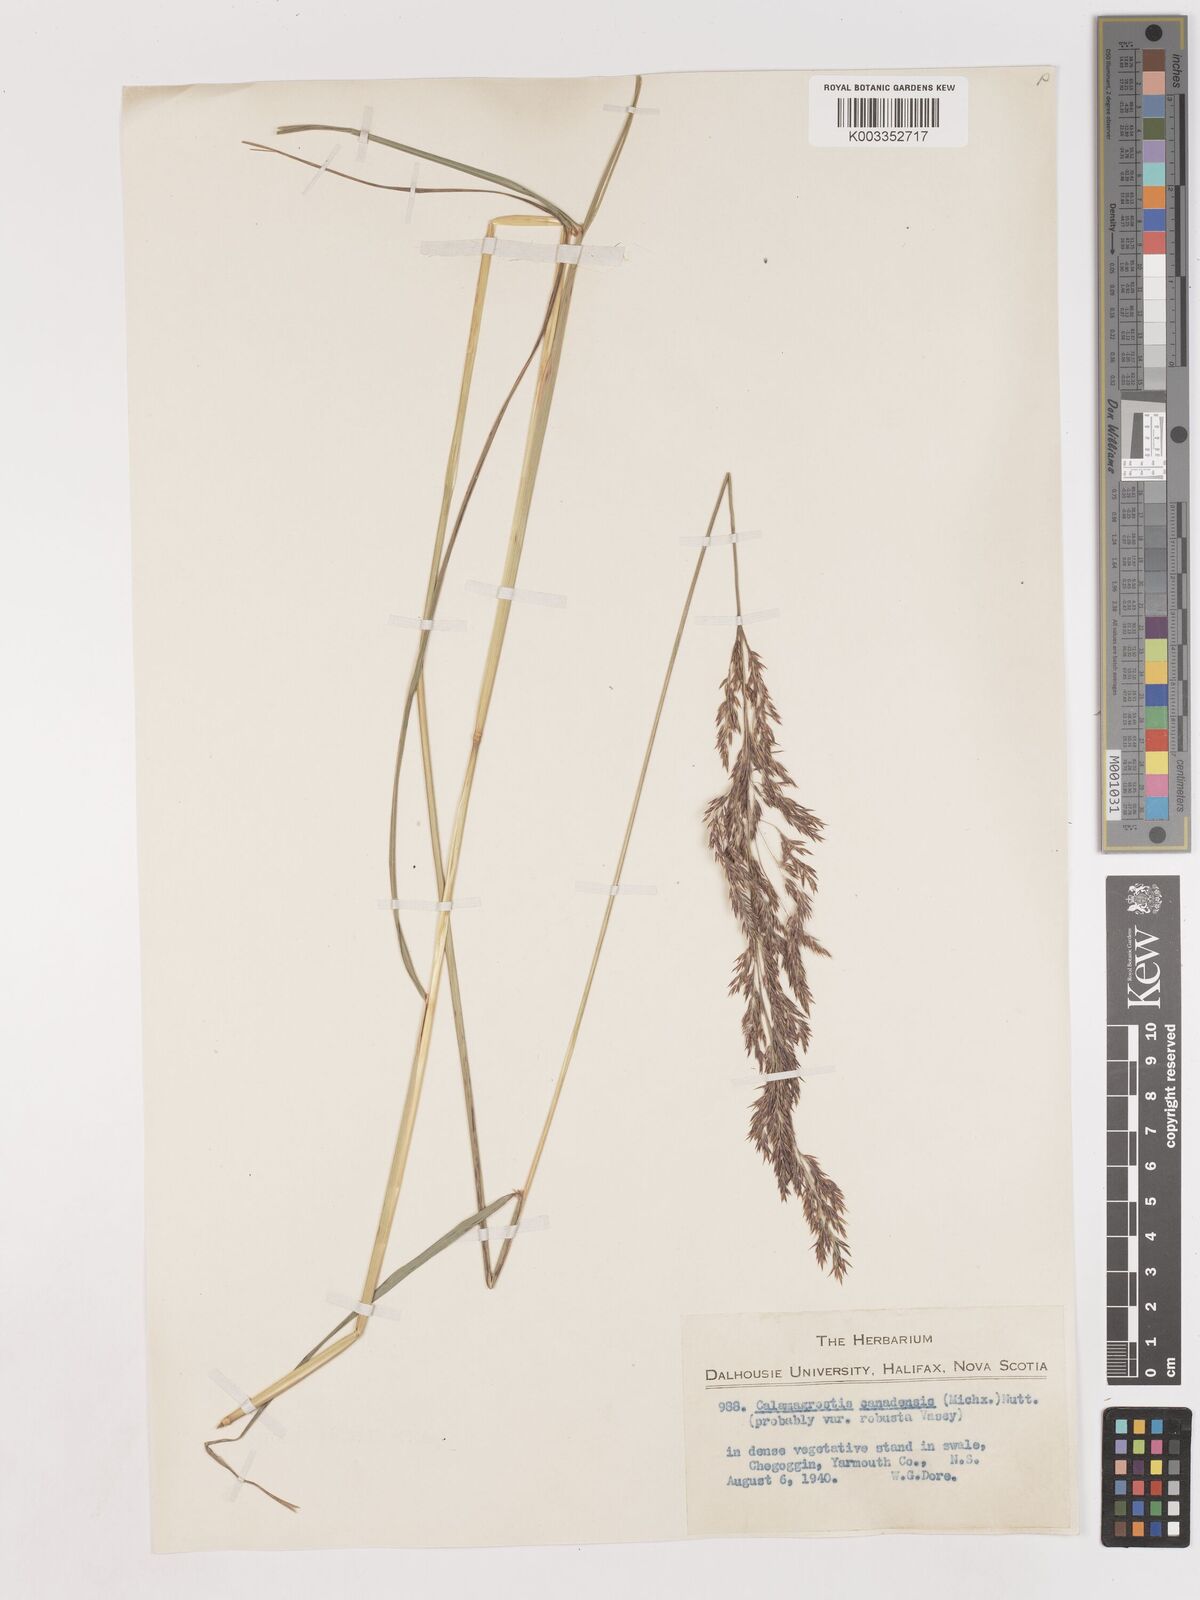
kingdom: Plantae
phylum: Tracheophyta
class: Liliopsida
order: Poales
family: Poaceae
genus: Calamagrostis
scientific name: Calamagrostis canadensis
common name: Canada bluejoint
